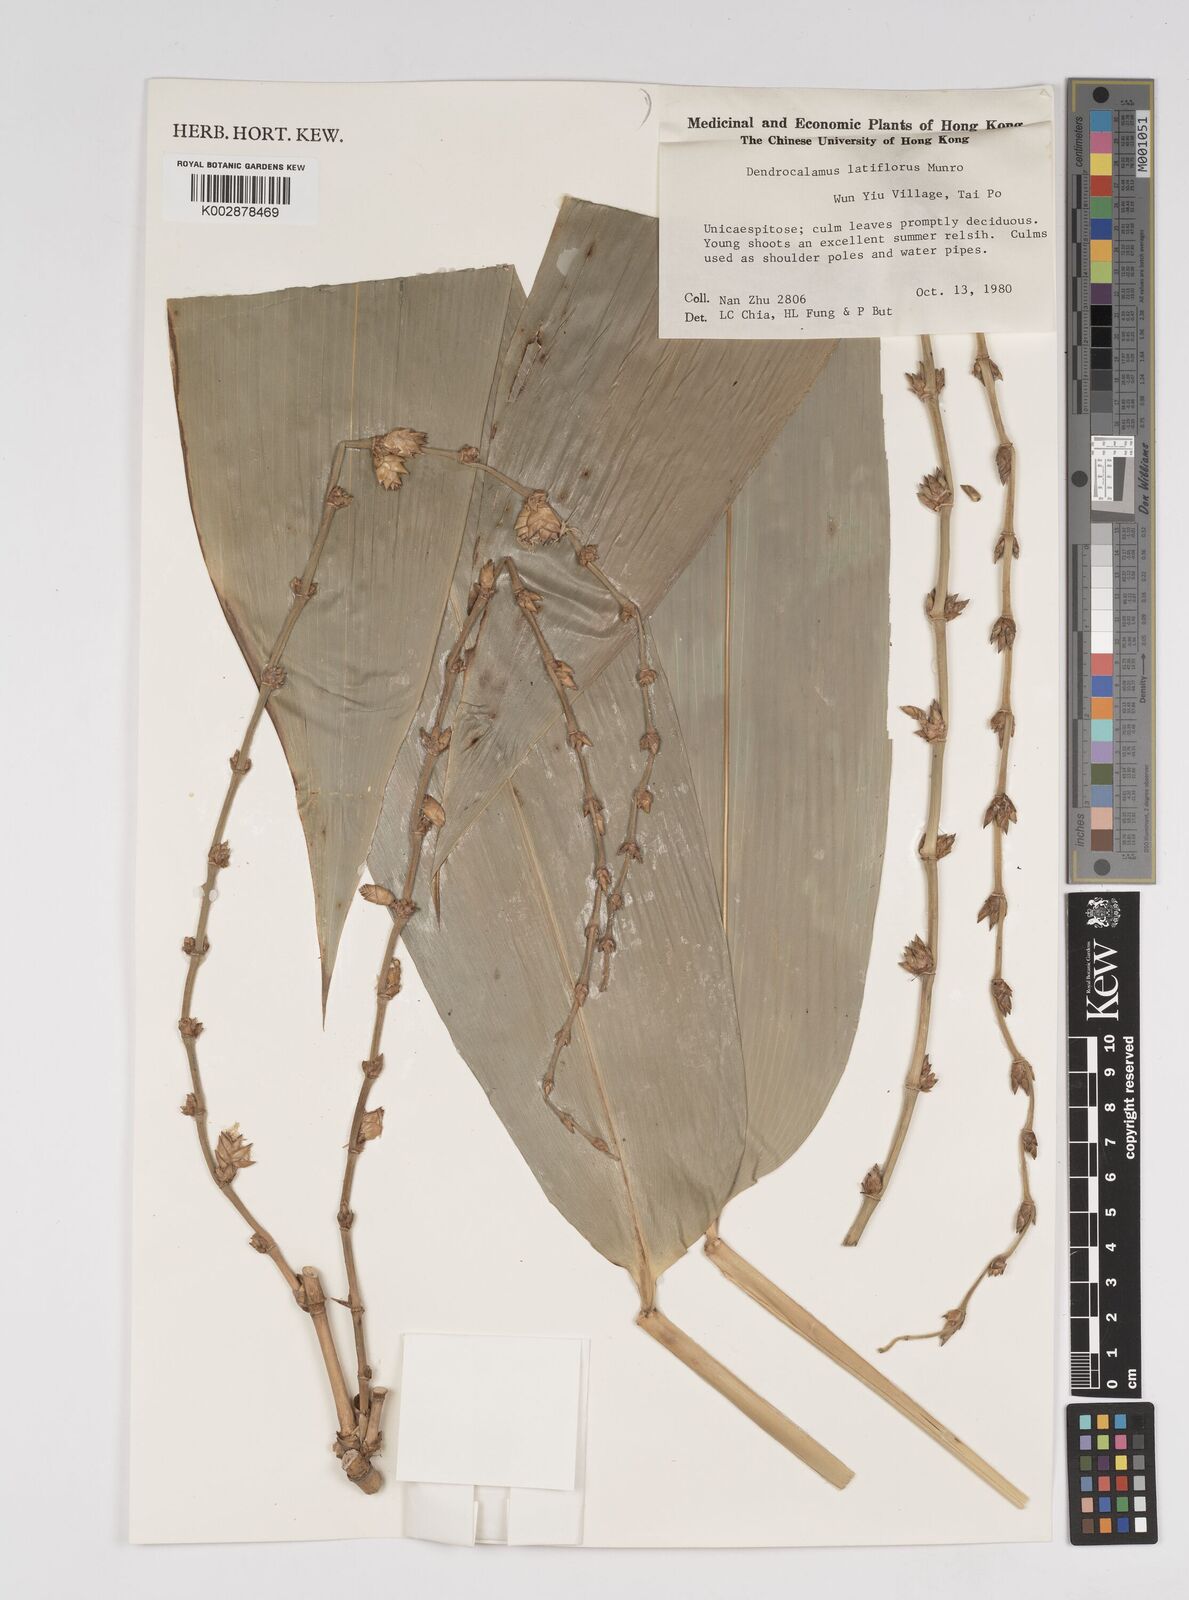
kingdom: Plantae
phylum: Tracheophyta
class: Liliopsida
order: Poales
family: Poaceae
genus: Dendrocalamus
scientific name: Dendrocalamus latiflorus
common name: Giant bamboo
